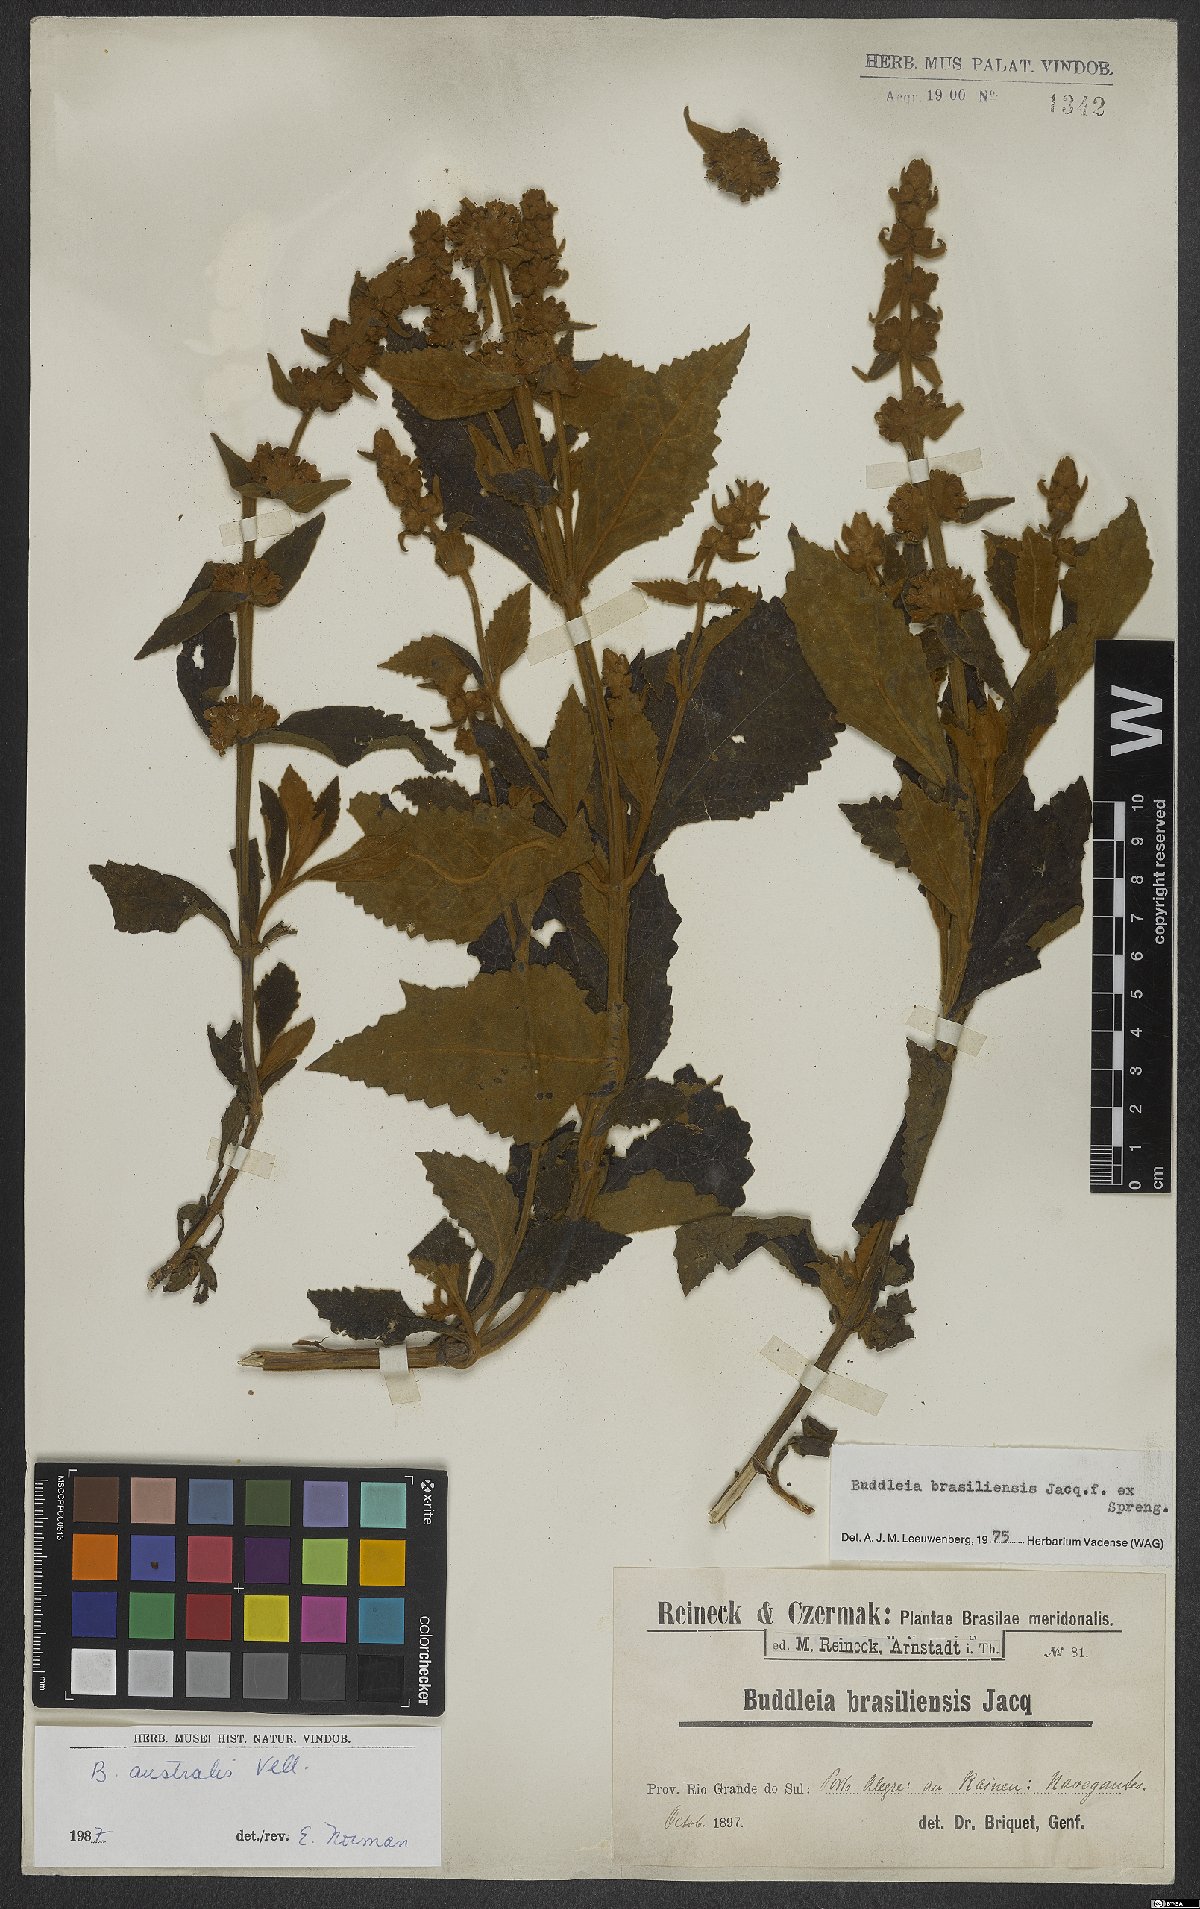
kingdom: Plantae
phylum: Tracheophyta
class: Magnoliopsida
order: Lamiales
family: Scrophulariaceae
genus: Buddleja
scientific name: Buddleja stachyoides
